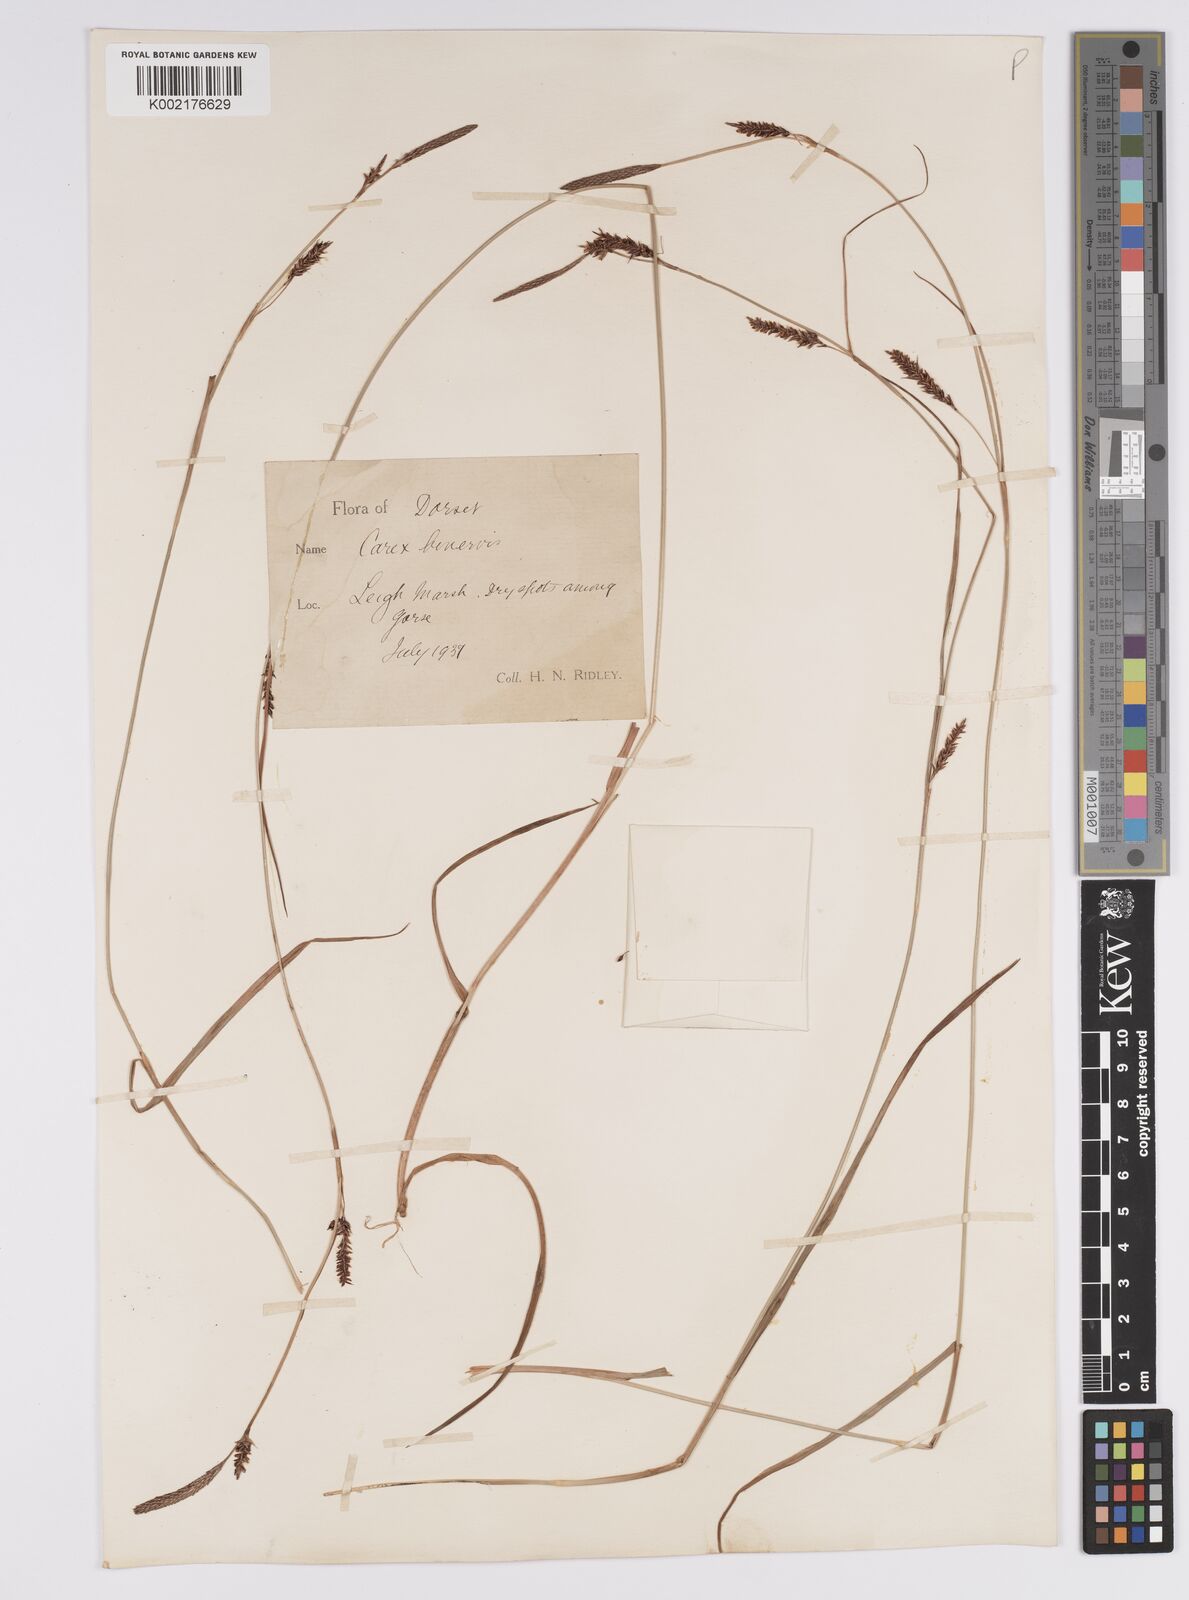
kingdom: Plantae
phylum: Tracheophyta
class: Liliopsida
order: Poales
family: Cyperaceae
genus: Carex
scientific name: Carex binervis
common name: Green-ribbed sedge
